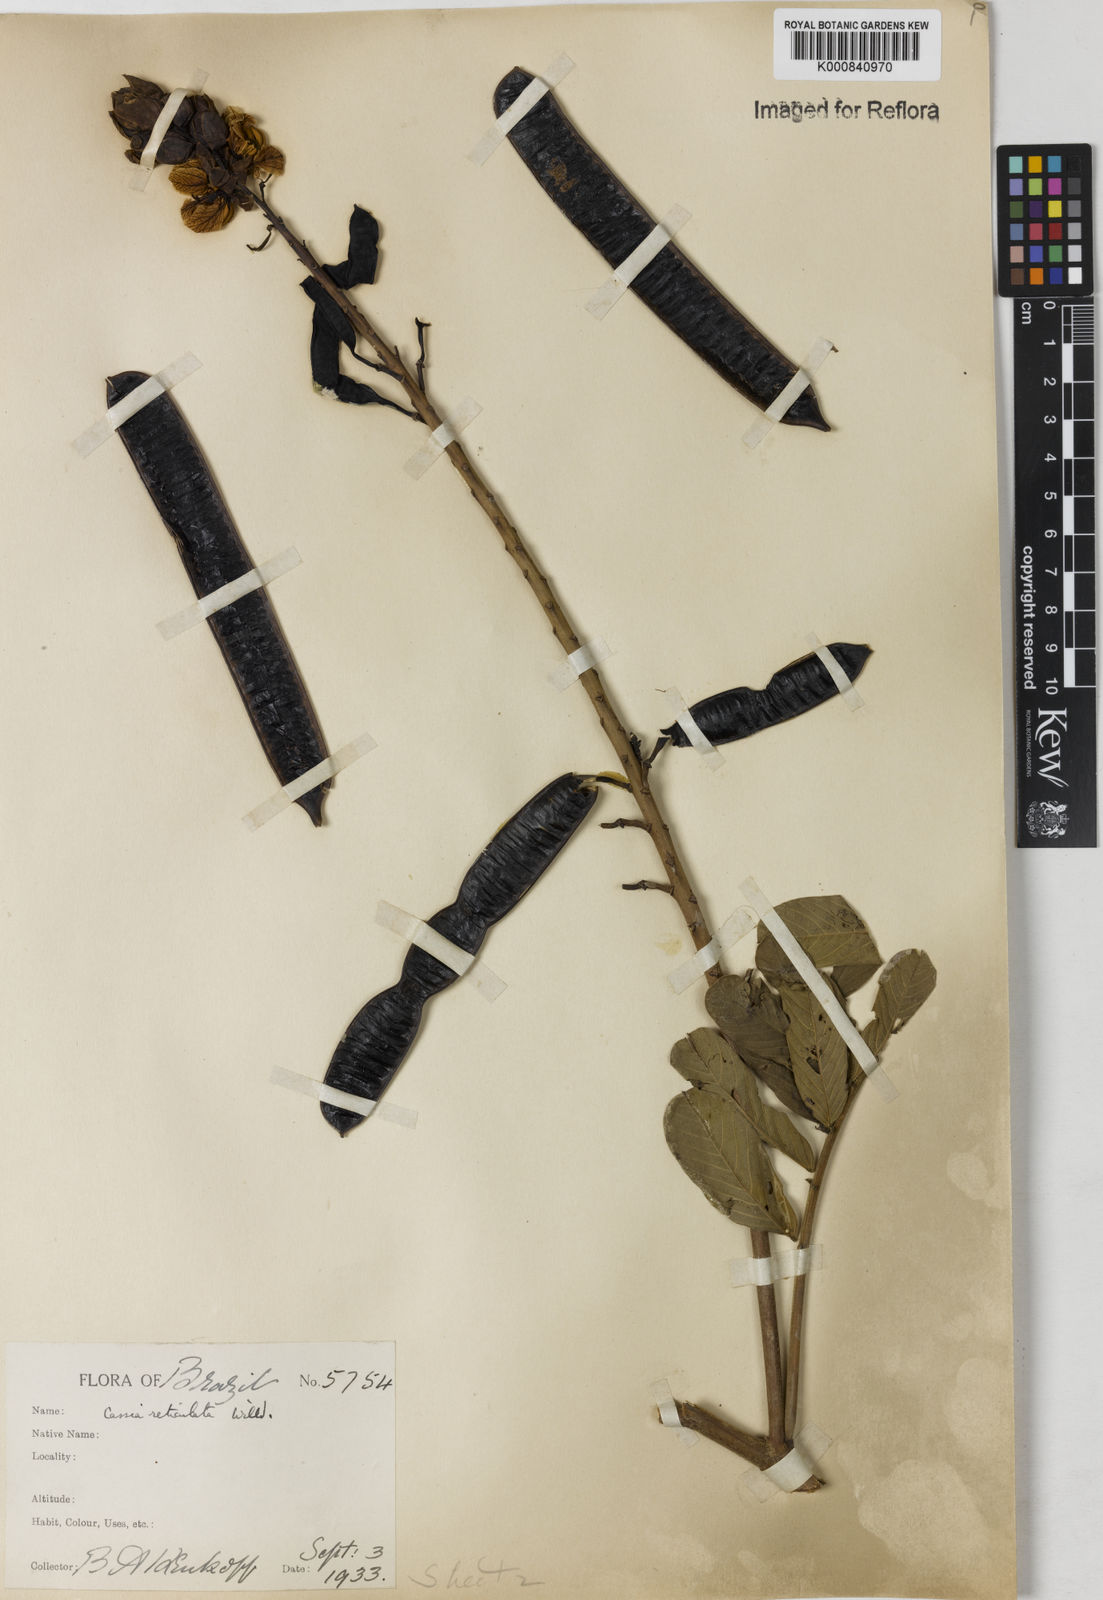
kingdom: Plantae
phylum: Tracheophyta
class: Magnoliopsida
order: Fabales
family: Fabaceae
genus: Senna
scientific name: Senna reticulata
